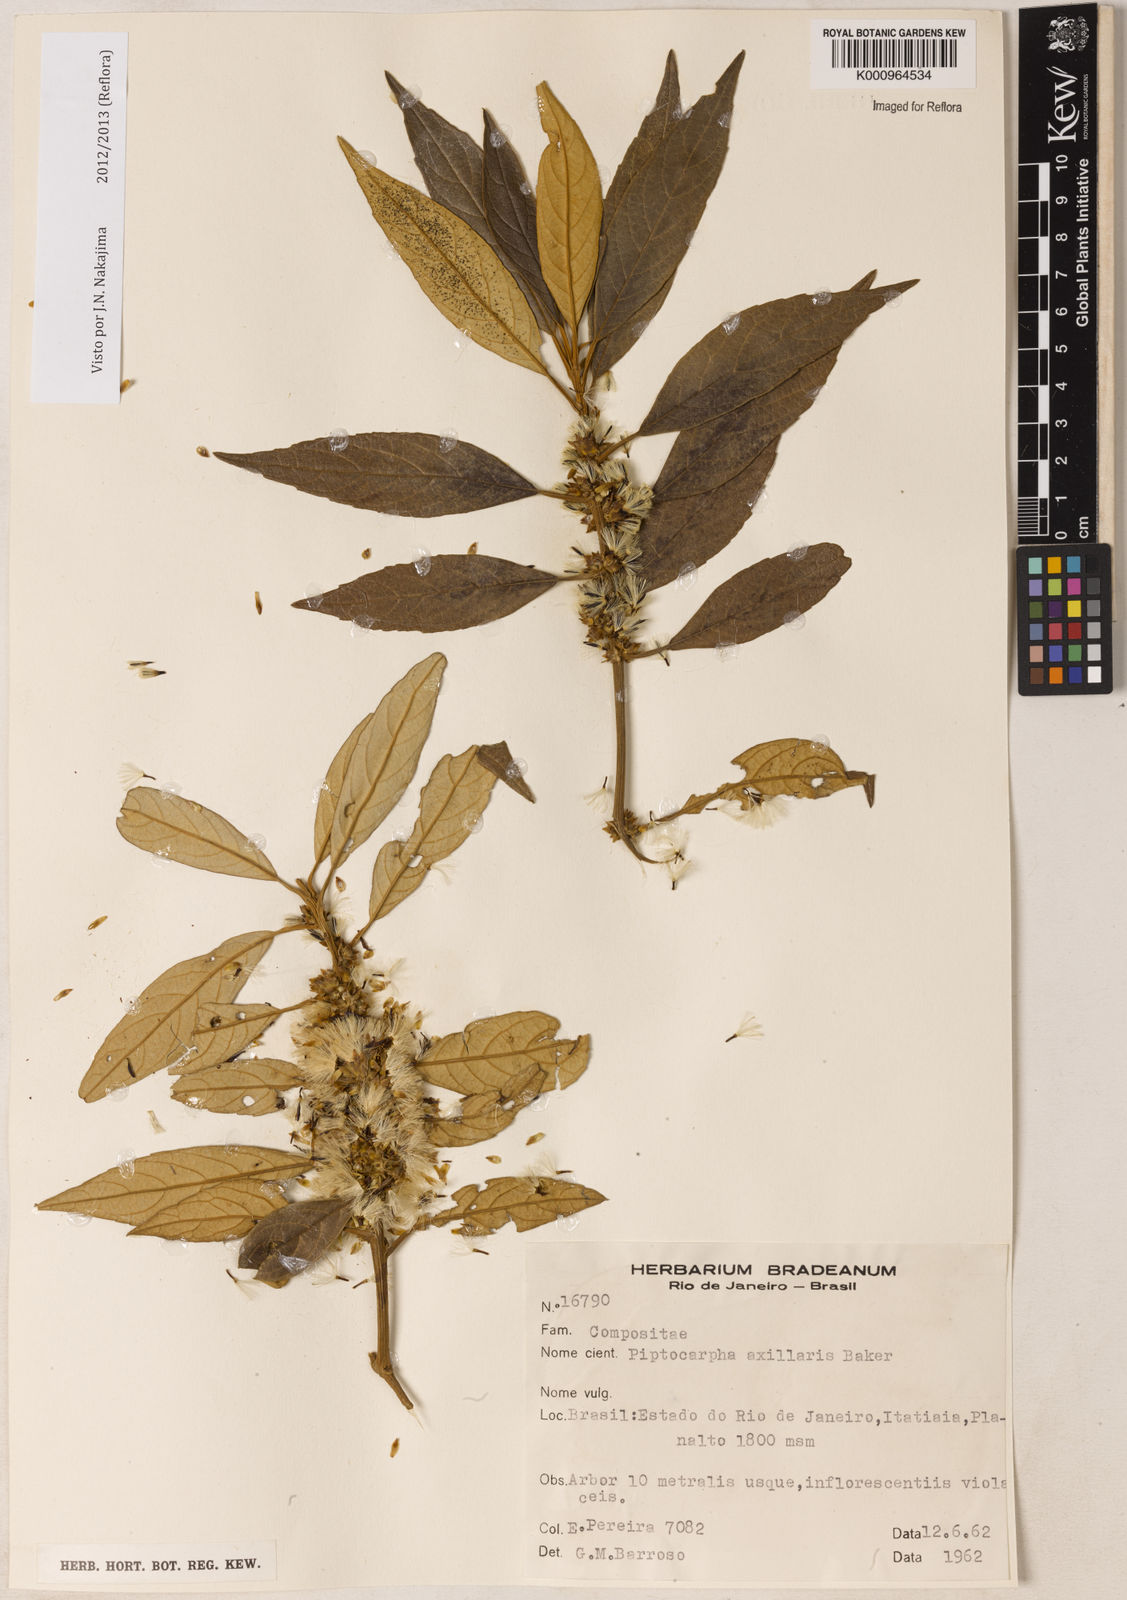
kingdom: Plantae
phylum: Tracheophyta
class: Magnoliopsida
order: Asterales
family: Asteraceae
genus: Piptocarpha
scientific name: Piptocarpha axillaris
